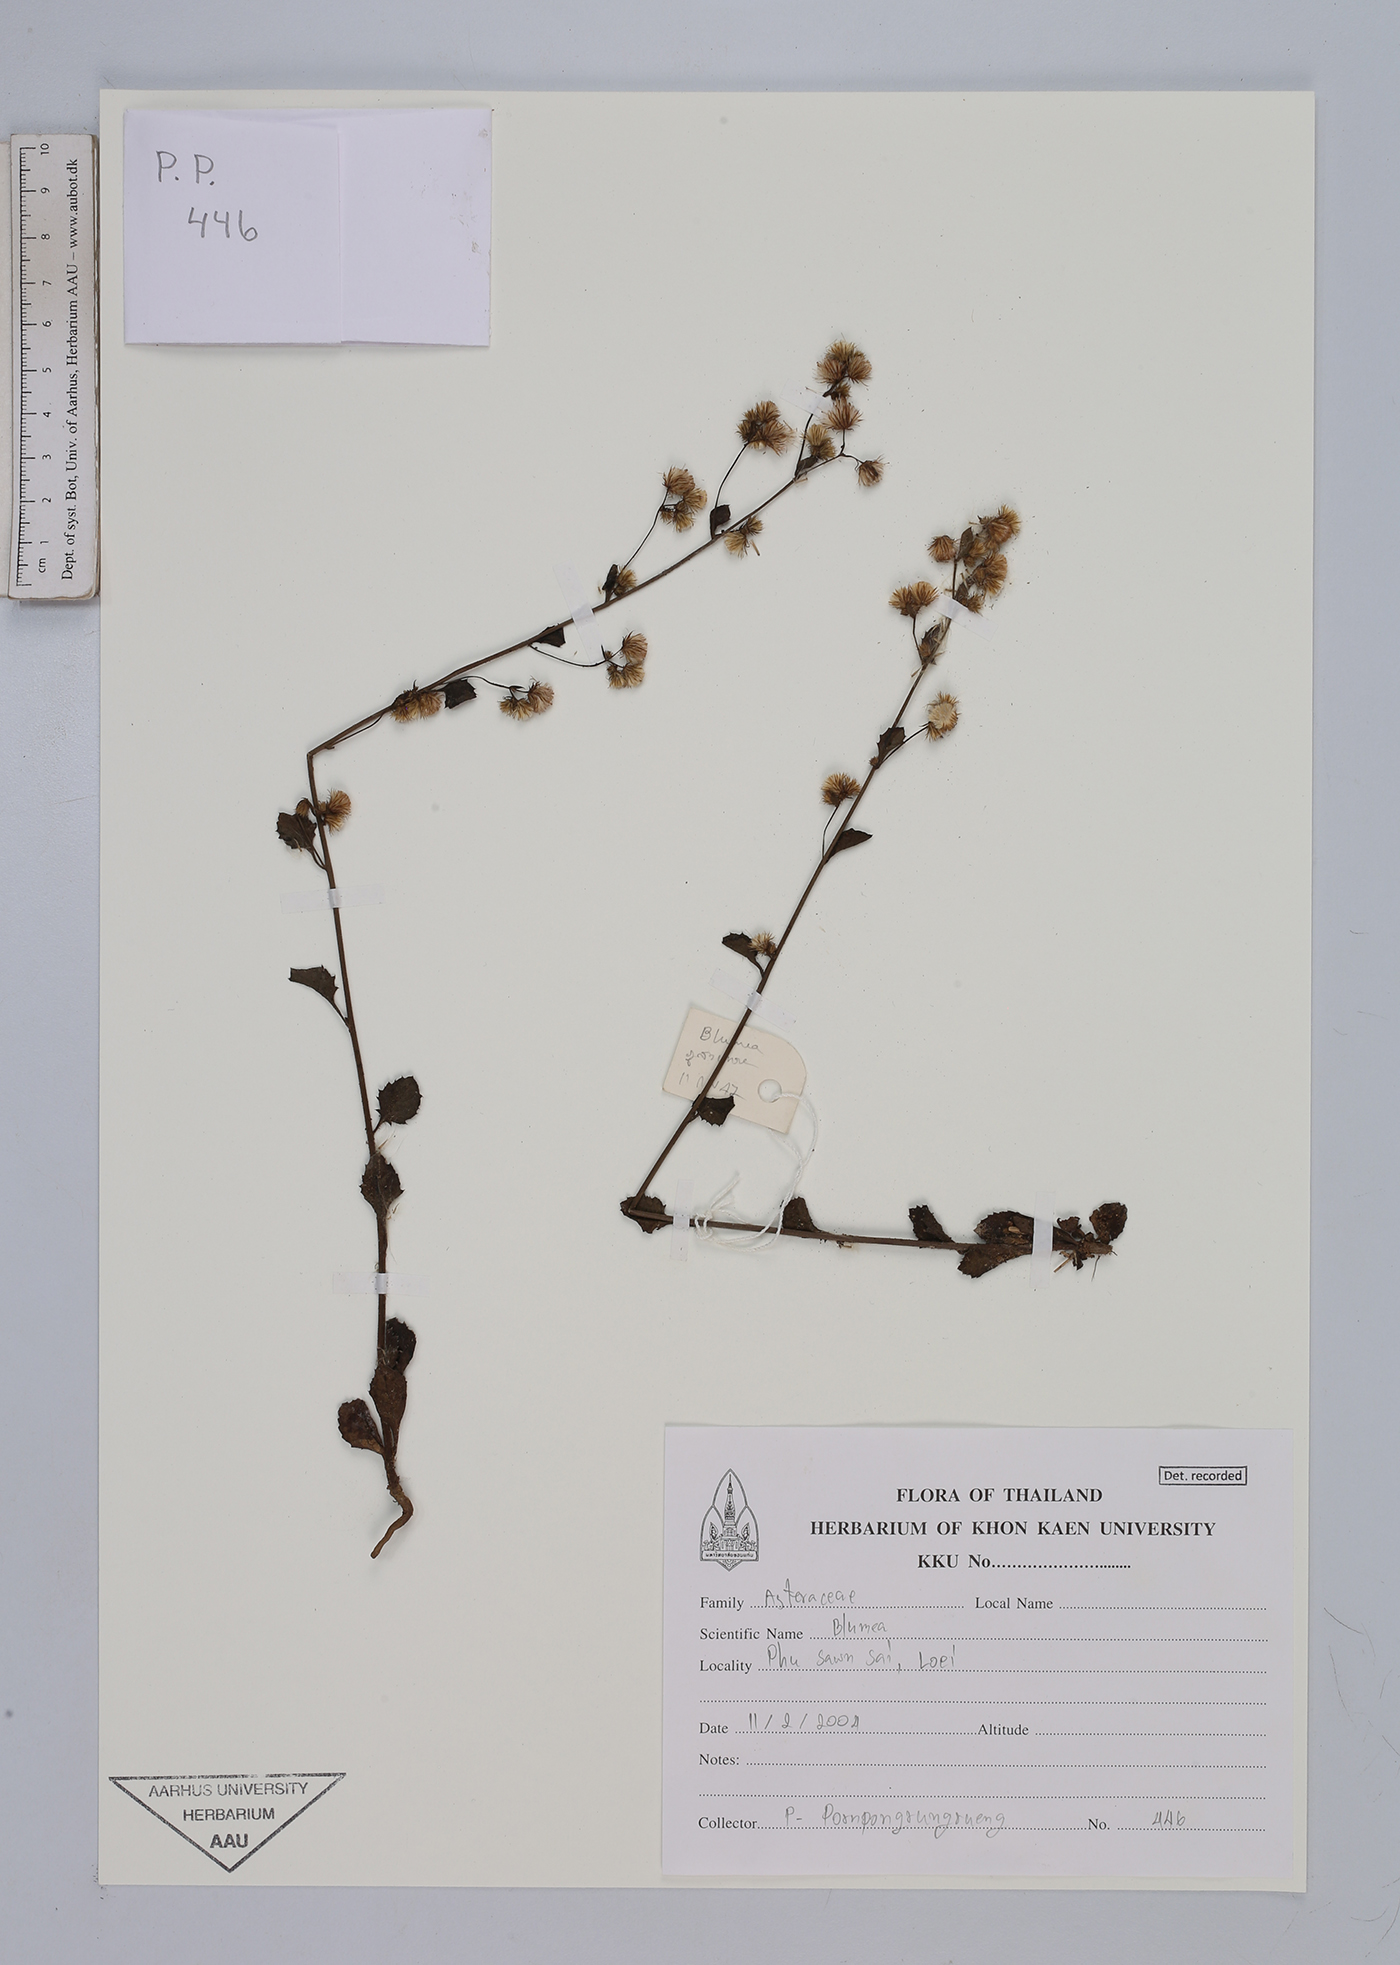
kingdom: Plantae
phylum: Tracheophyta
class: Magnoliopsida
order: Asterales
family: Asteraceae
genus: Blumea
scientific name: Blumea
